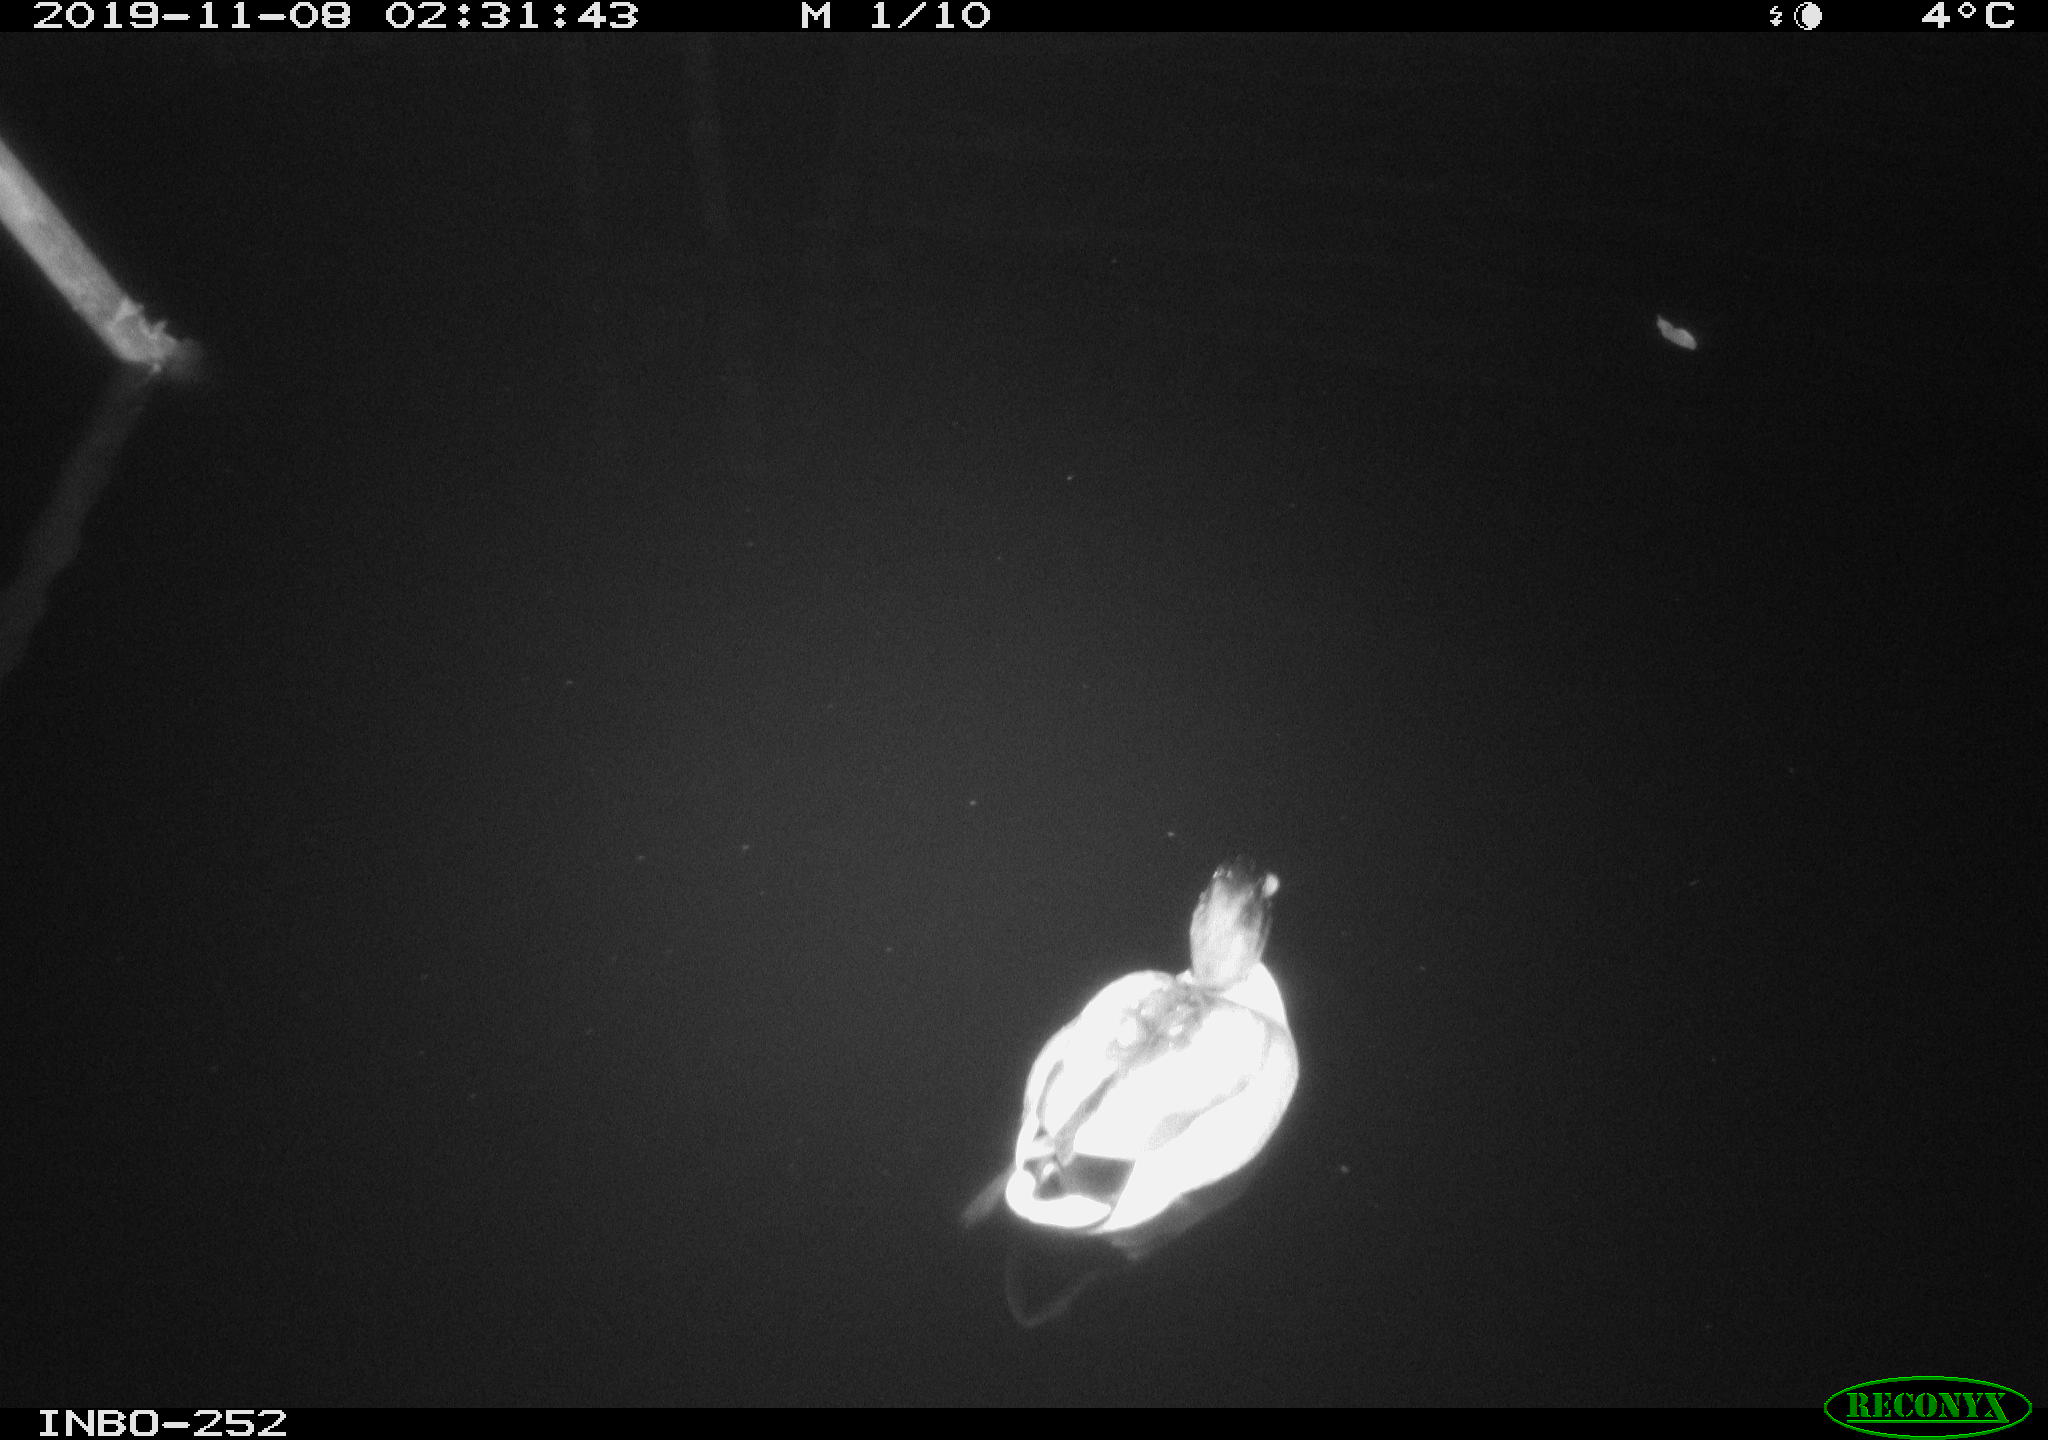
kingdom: Animalia
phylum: Chordata
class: Aves
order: Anseriformes
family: Anatidae
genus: Anas
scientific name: Anas platyrhynchos
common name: Mallard
